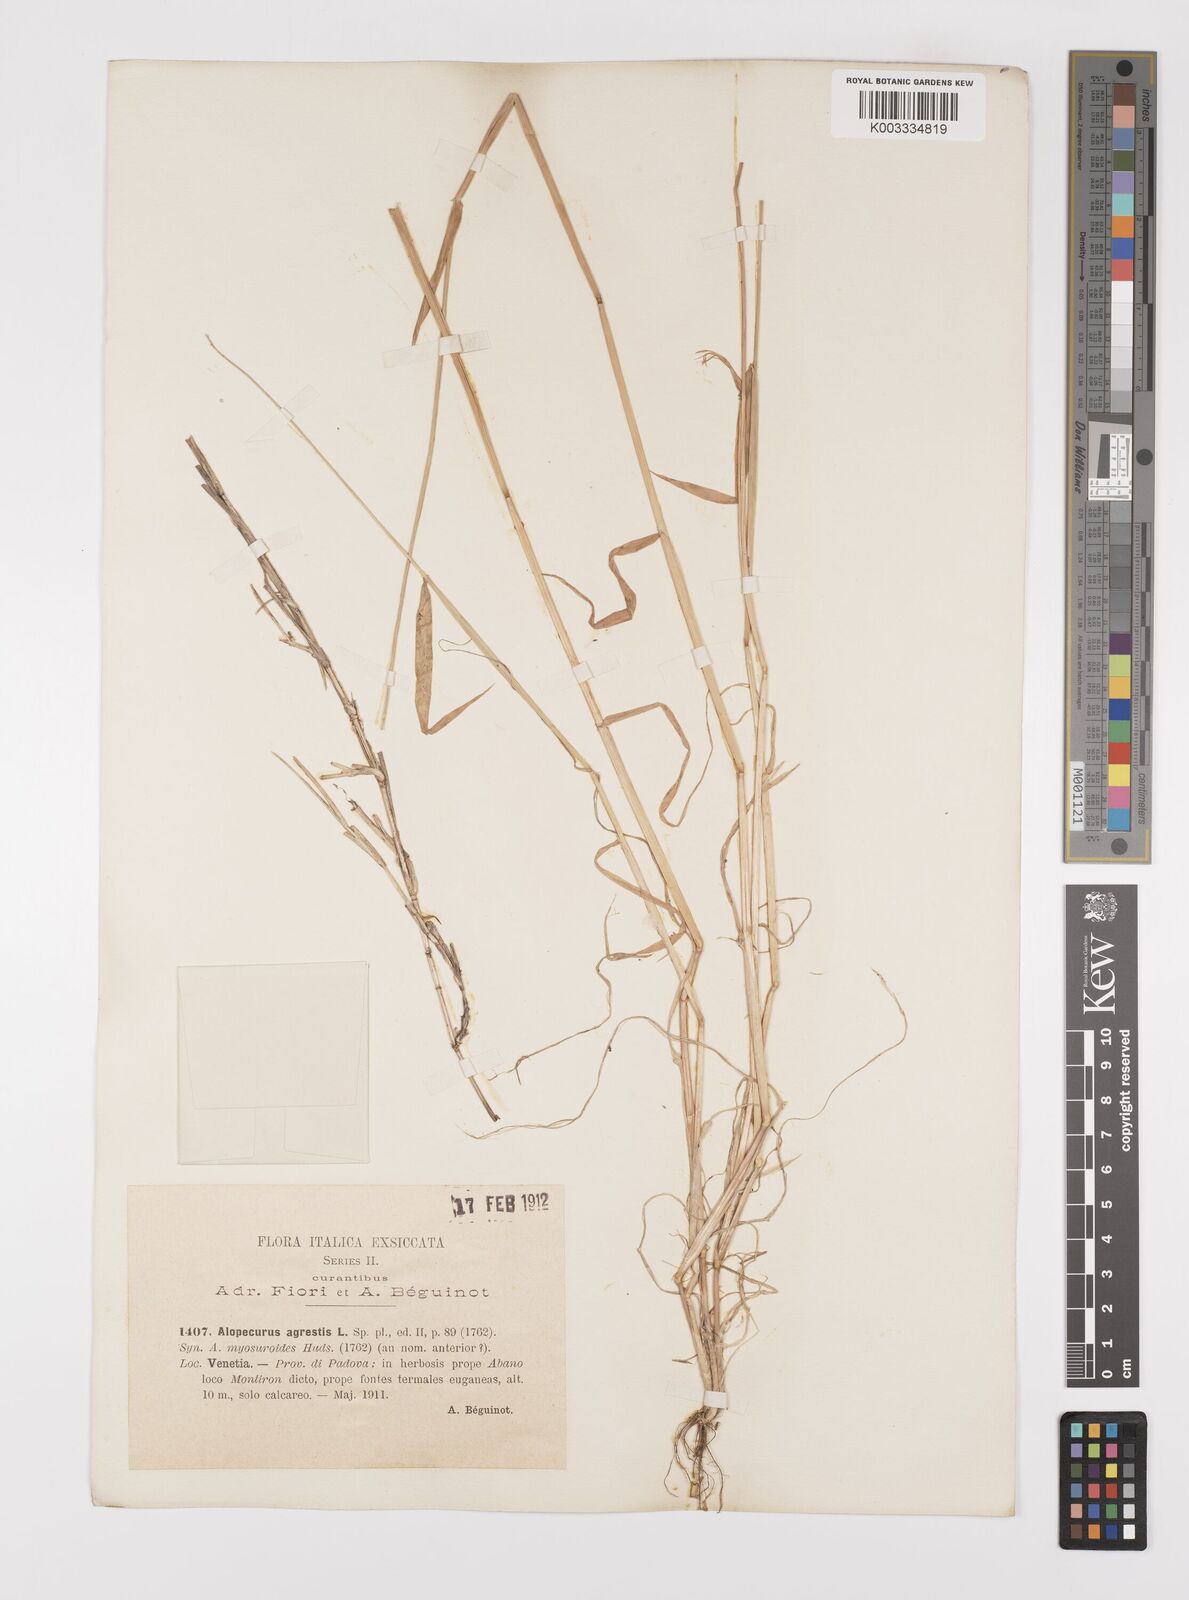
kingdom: Plantae
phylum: Tracheophyta
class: Liliopsida
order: Poales
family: Poaceae
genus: Alopecurus
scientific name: Alopecurus myosuroides
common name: Black-grass
